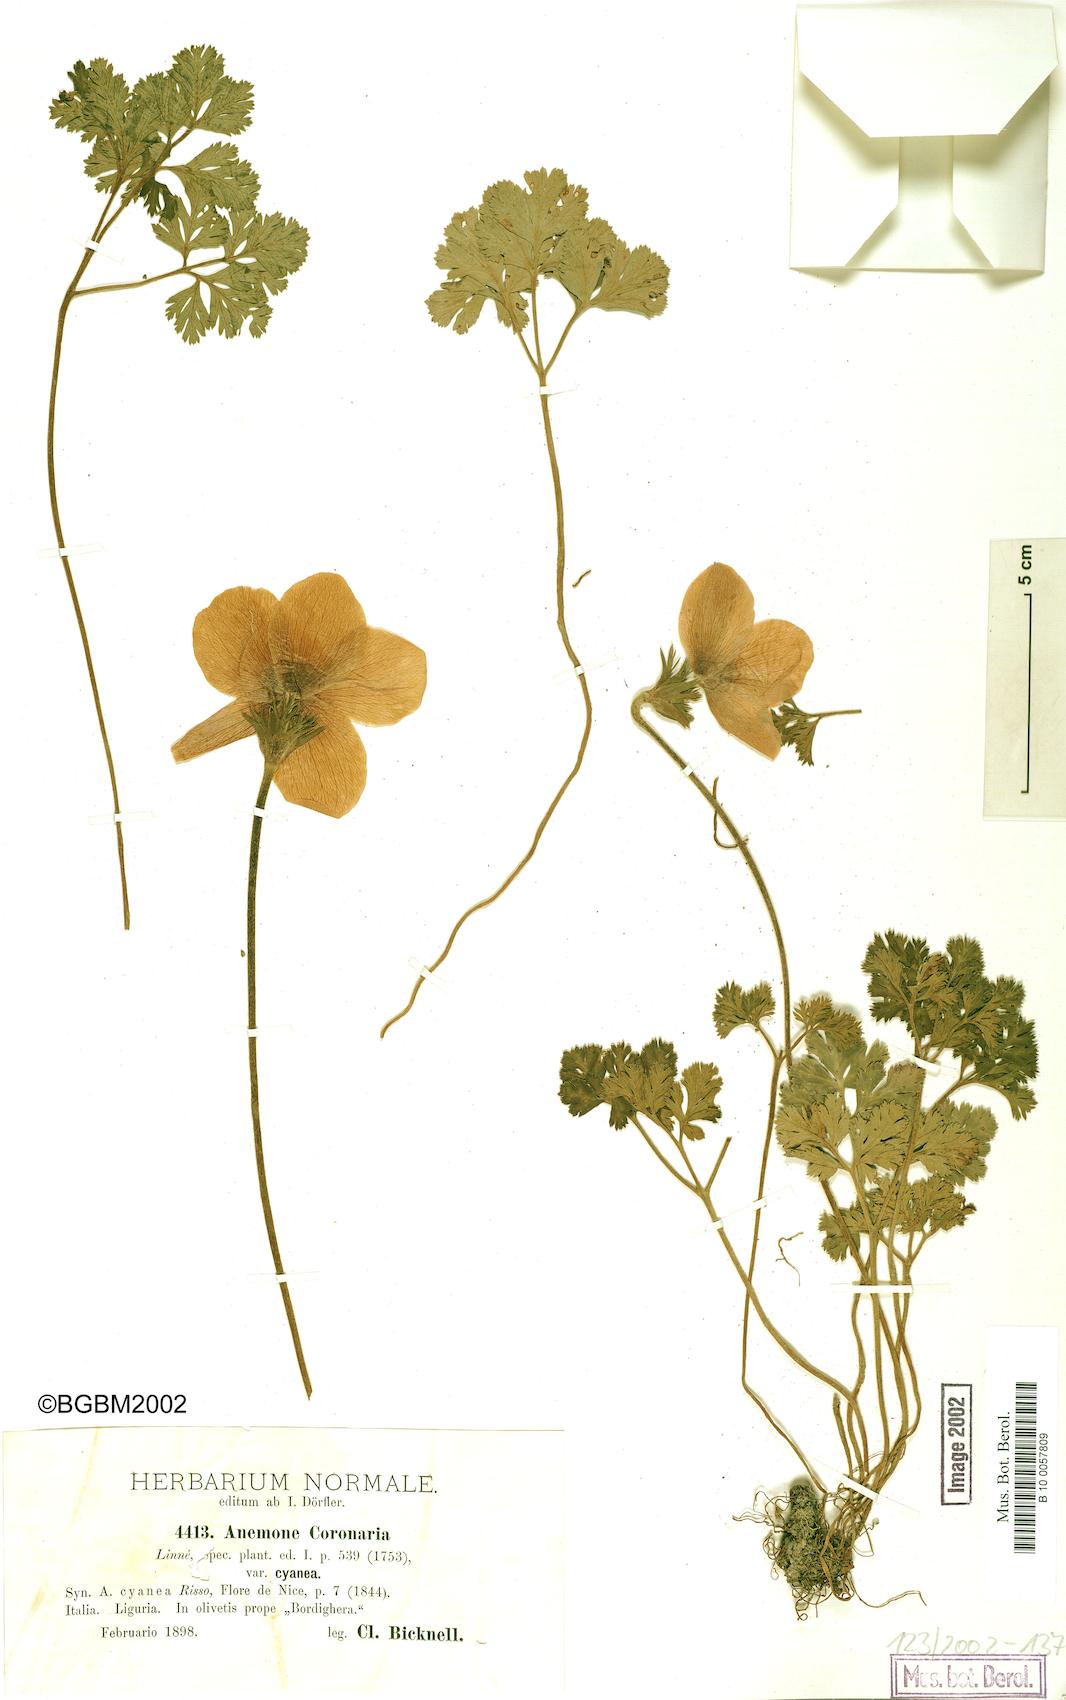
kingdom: Plantae
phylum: Tracheophyta
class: Magnoliopsida
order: Ranunculales
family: Ranunculaceae
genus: Anemone
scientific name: Anemone coronaria
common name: Poppy anemone
